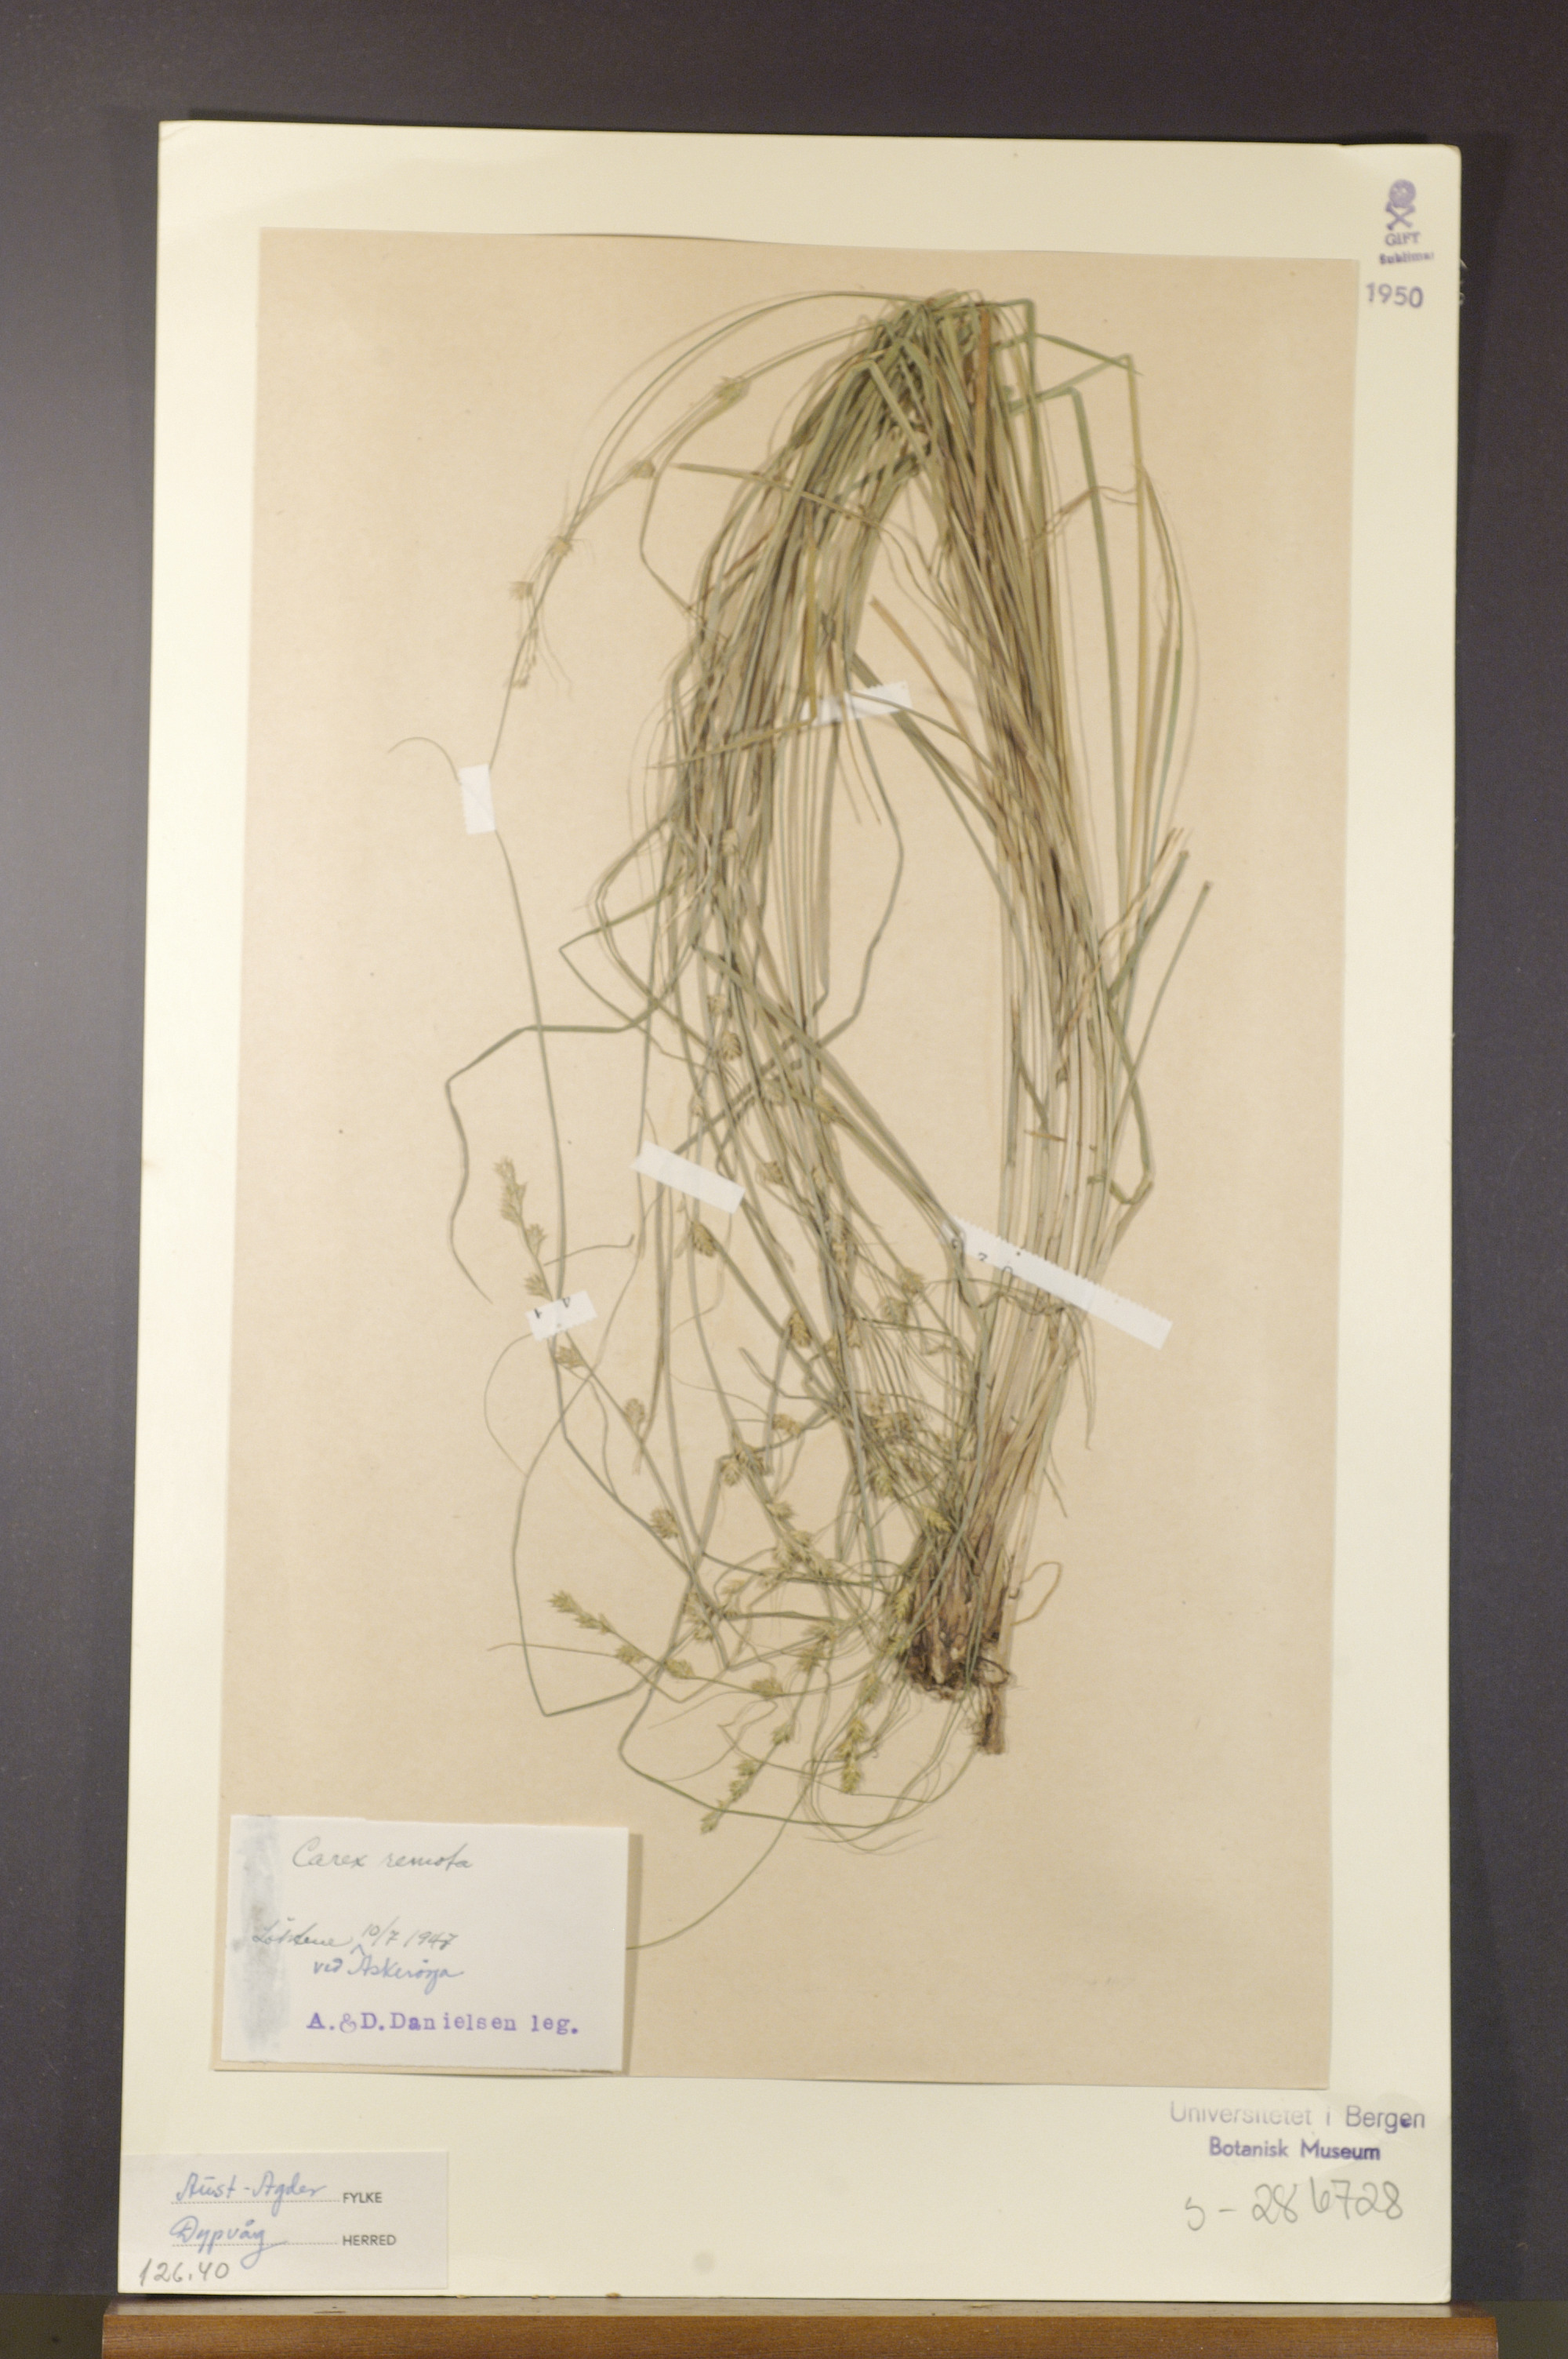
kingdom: Plantae
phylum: Tracheophyta
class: Liliopsida
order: Poales
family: Cyperaceae
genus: Carex
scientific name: Carex remota
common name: Remote sedge
